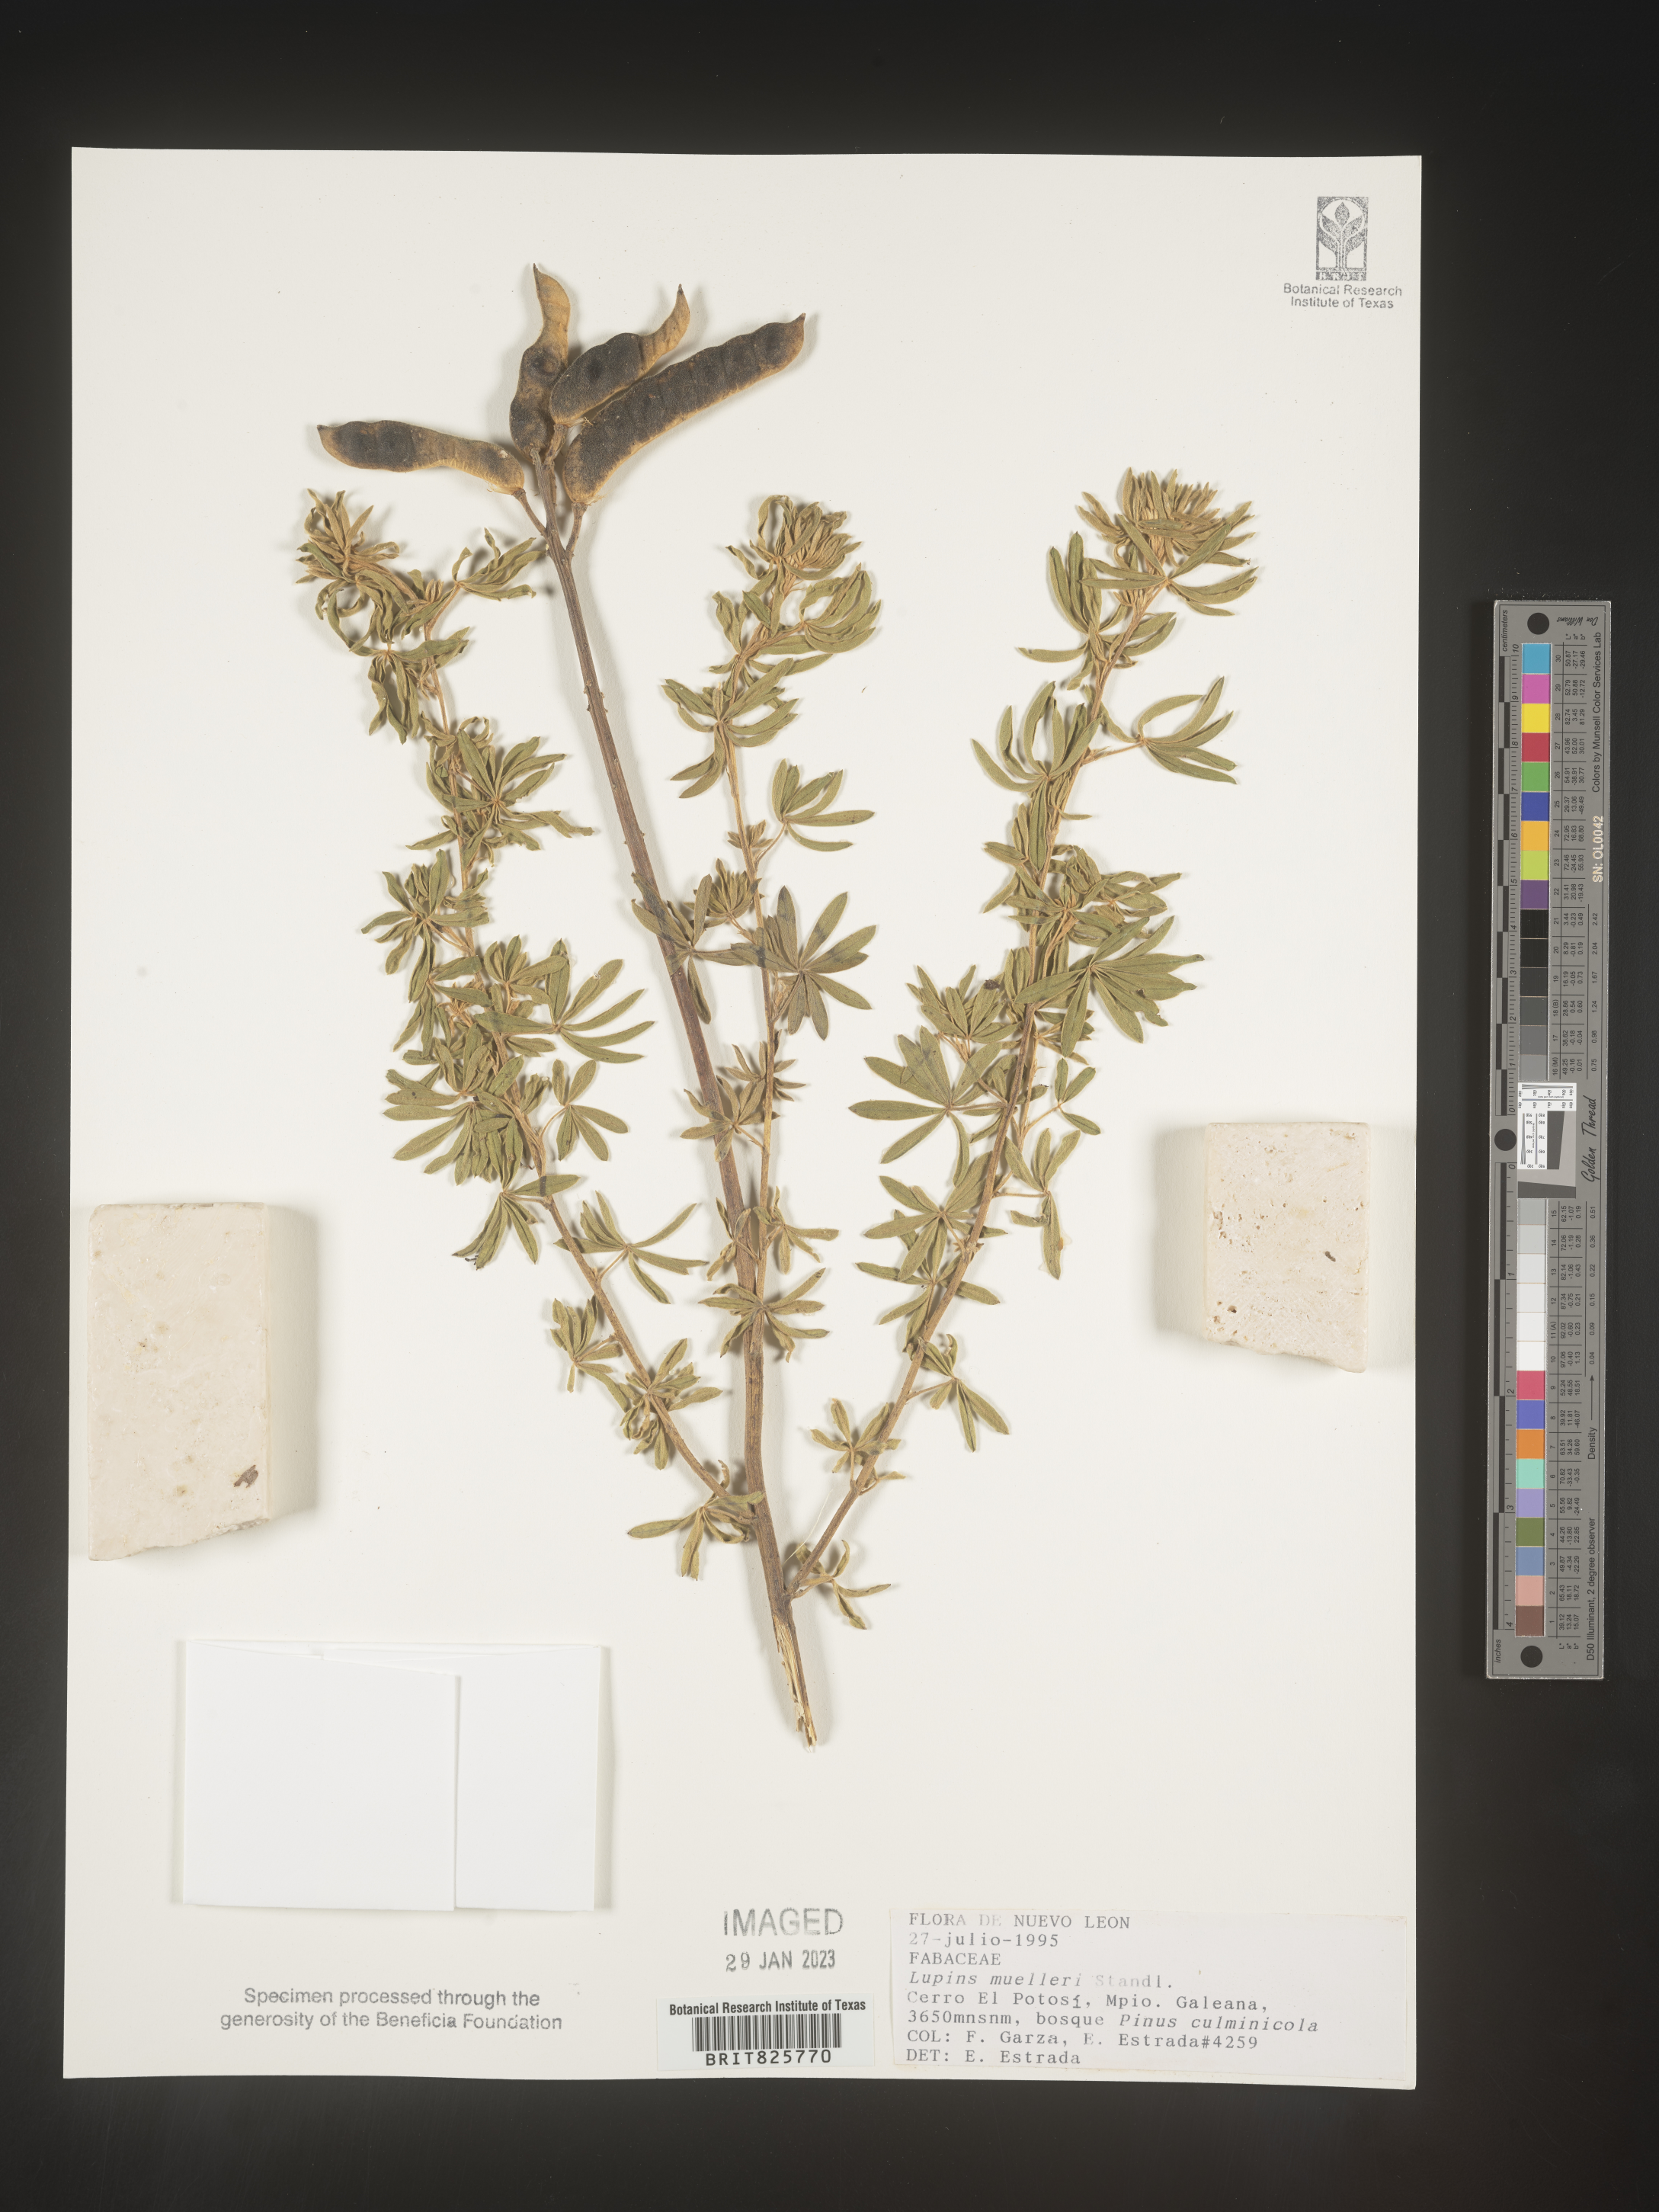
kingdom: Plantae
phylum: Tracheophyta
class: Magnoliopsida
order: Fabales
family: Fabaceae
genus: Lupinus
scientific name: Lupinus
